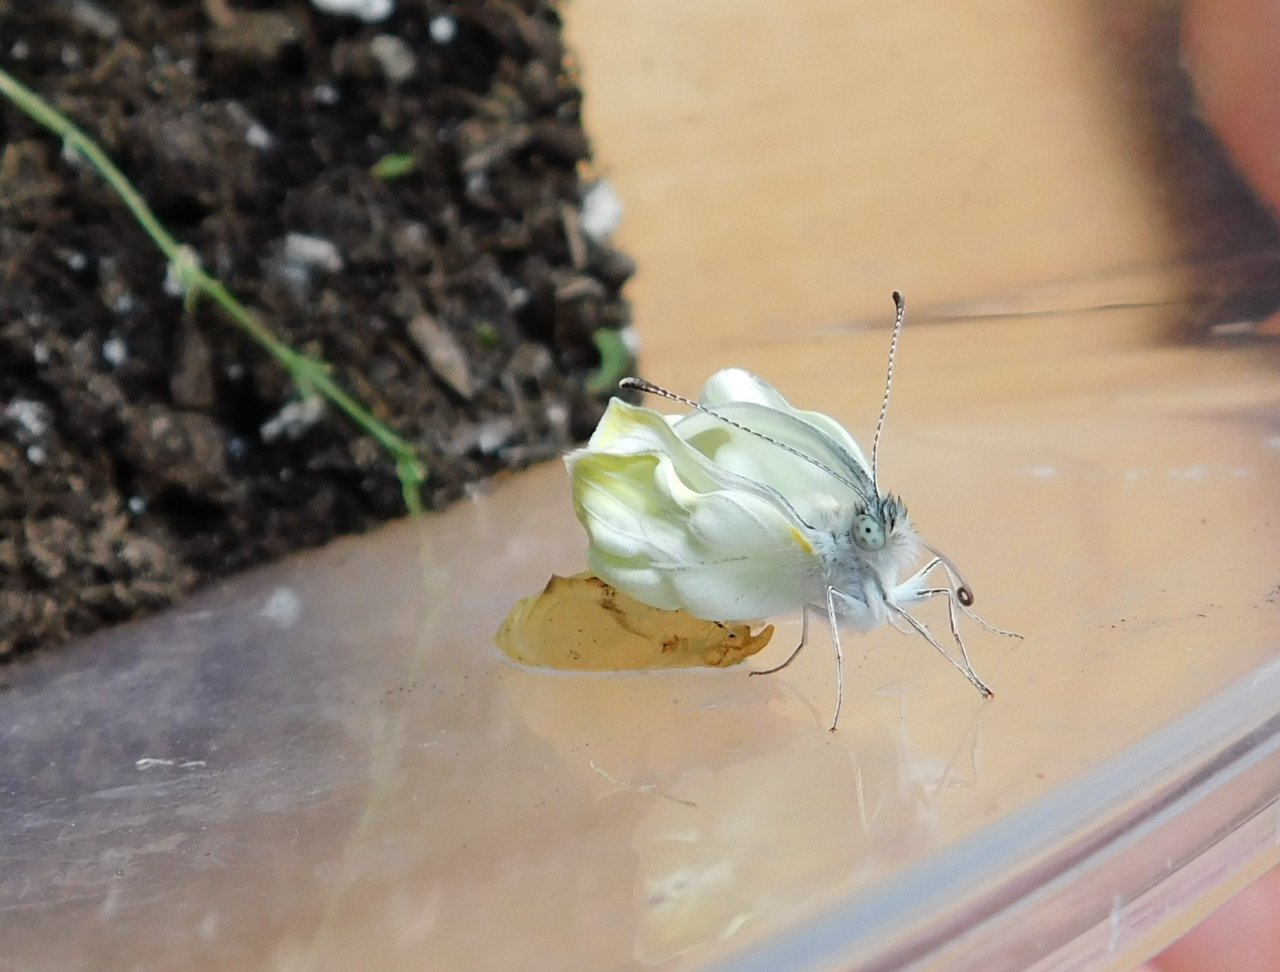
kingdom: Animalia
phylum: Arthropoda
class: Insecta
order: Lepidoptera
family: Pieridae
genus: Pieris
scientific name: Pieris oleracea
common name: Mustard White
